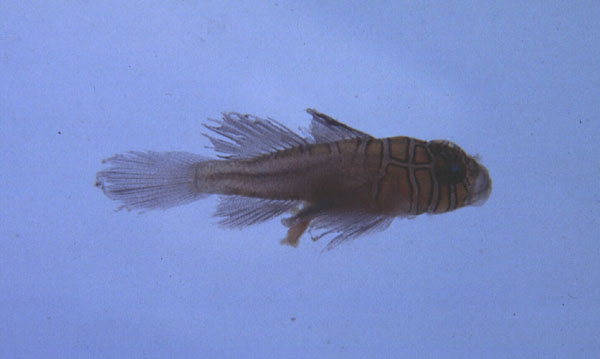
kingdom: Animalia
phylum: Chordata
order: Perciformes
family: Gobiidae
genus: Priolepis
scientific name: Priolepis compita
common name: Crossroads goby
